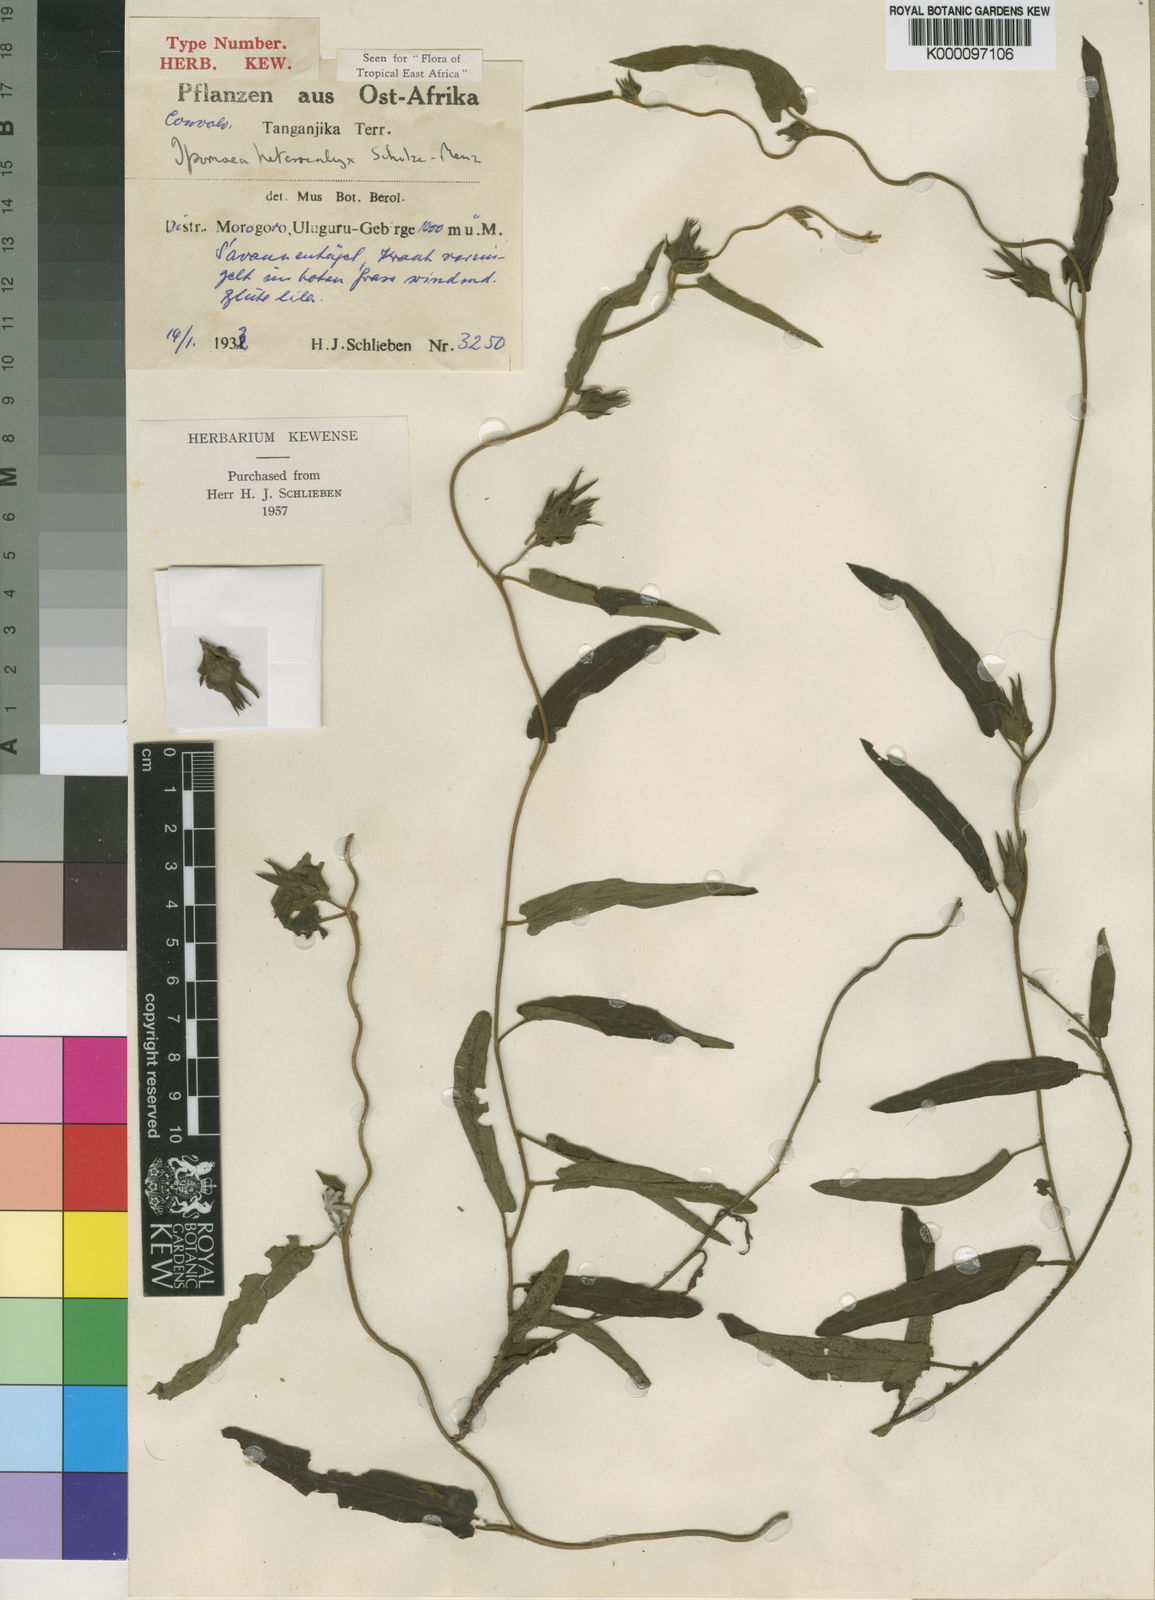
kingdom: Plantae
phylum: Tracheophyta
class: Magnoliopsida
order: Solanales
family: Convolvulaceae
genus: Ipomoea
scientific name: Ipomoea fulvicaulis
